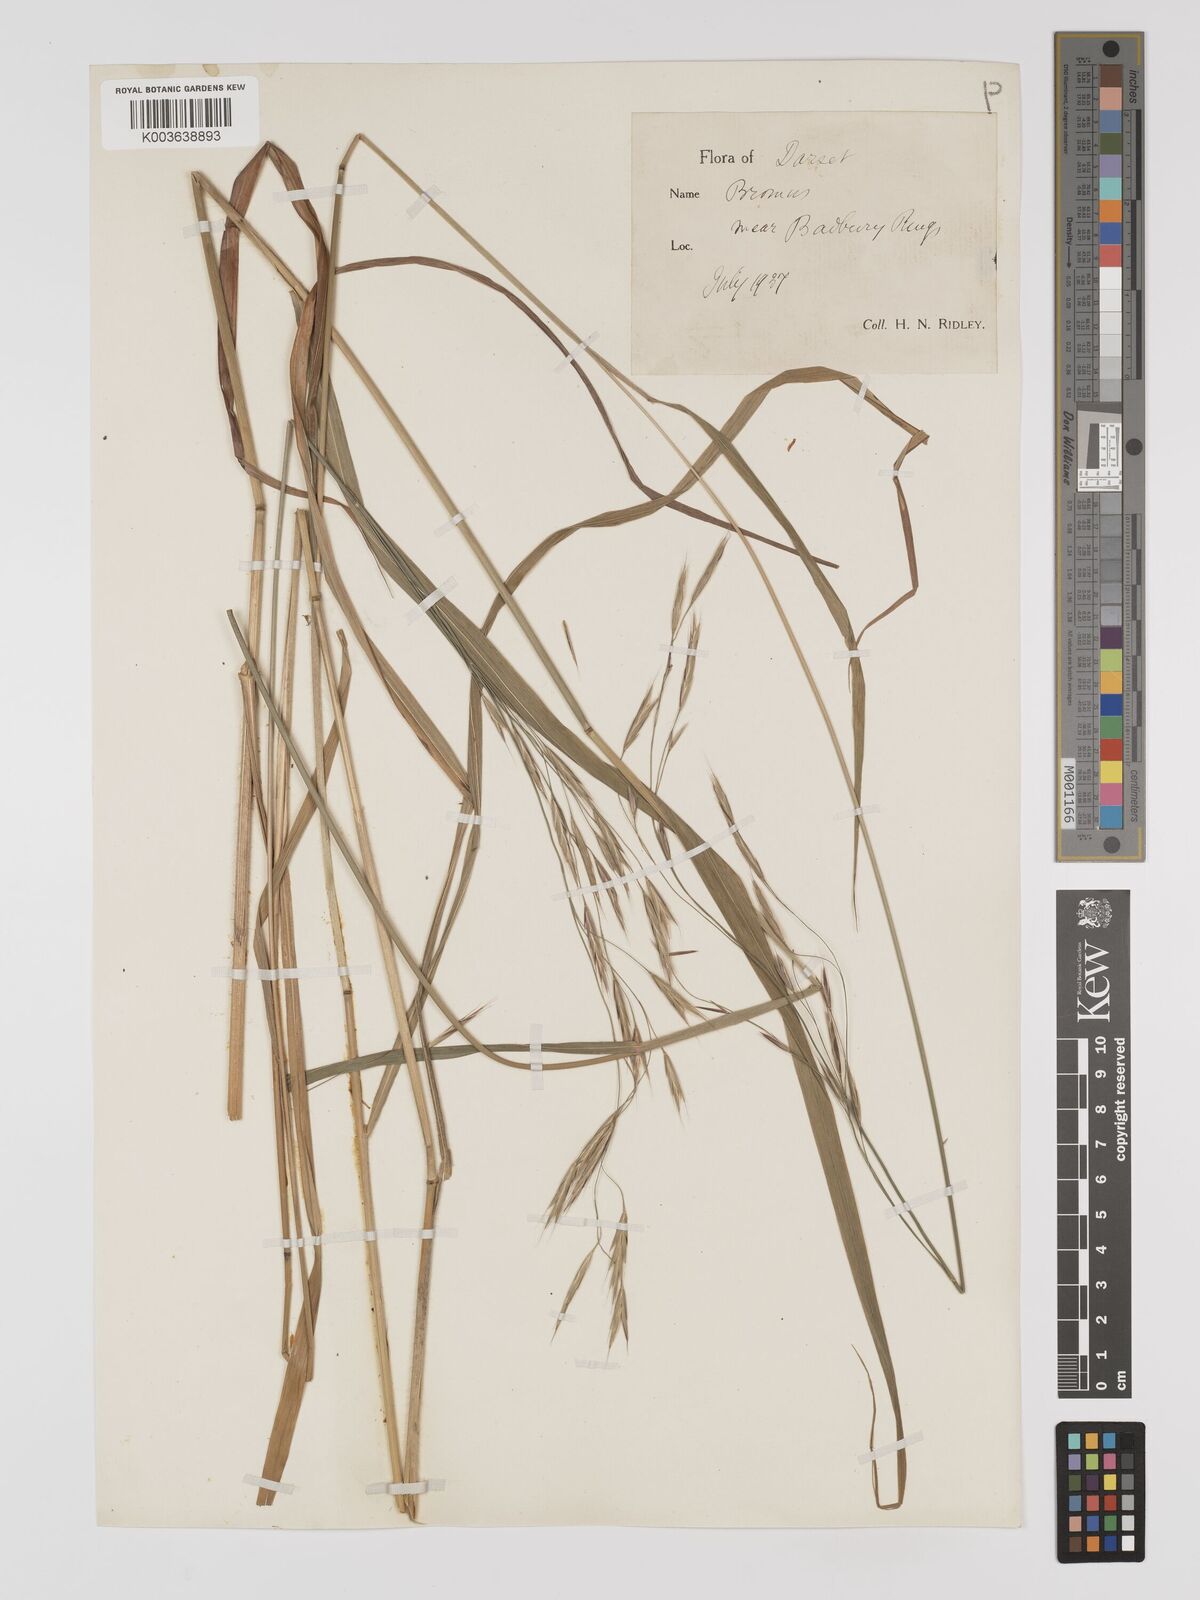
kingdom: Plantae
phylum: Tracheophyta
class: Liliopsida
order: Poales
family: Poaceae
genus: Brachypodium
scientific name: Brachypodium retusum
